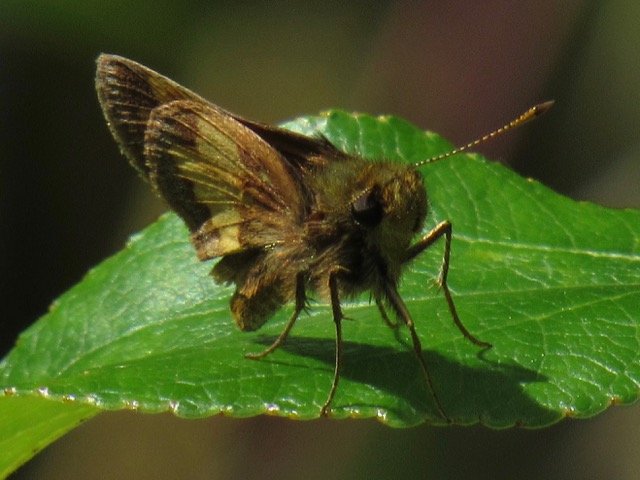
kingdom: Animalia
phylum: Arthropoda
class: Insecta
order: Lepidoptera
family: Hesperiidae
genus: Lon
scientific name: Lon hobomok
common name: Hobomok Skipper
